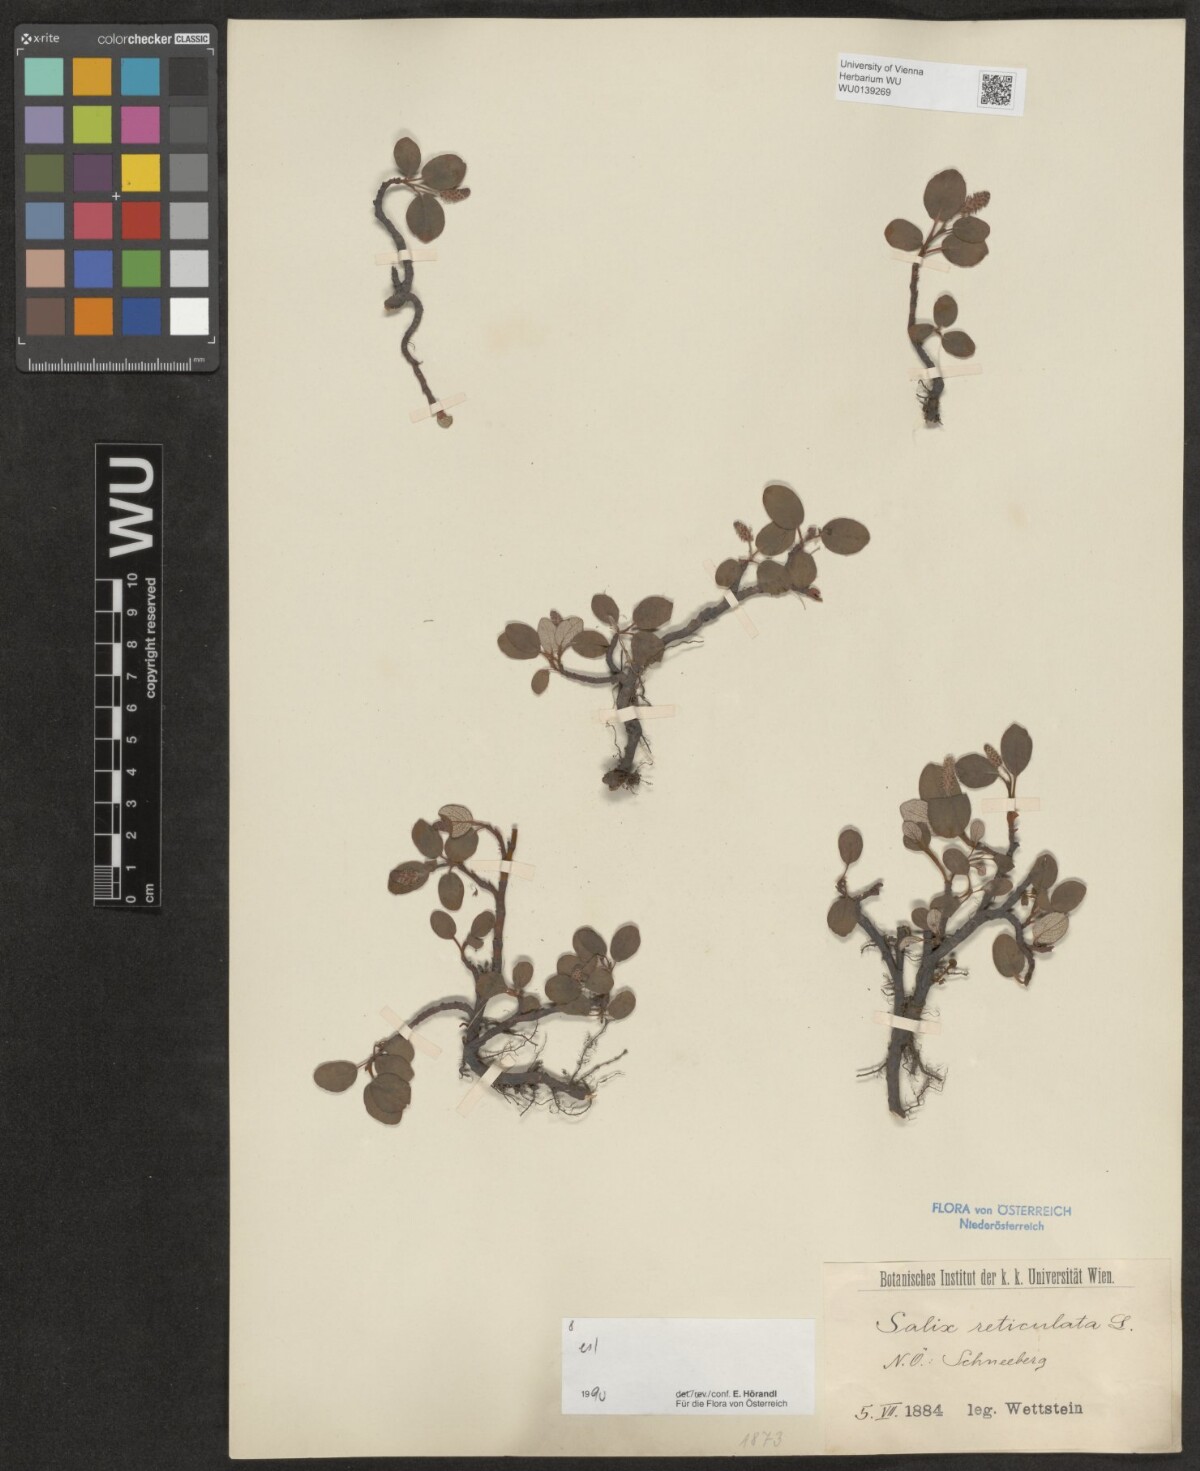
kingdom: Plantae
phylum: Tracheophyta
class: Magnoliopsida
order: Malpighiales
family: Salicaceae
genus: Salix
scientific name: Salix reticulata
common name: Net-leaved willow
